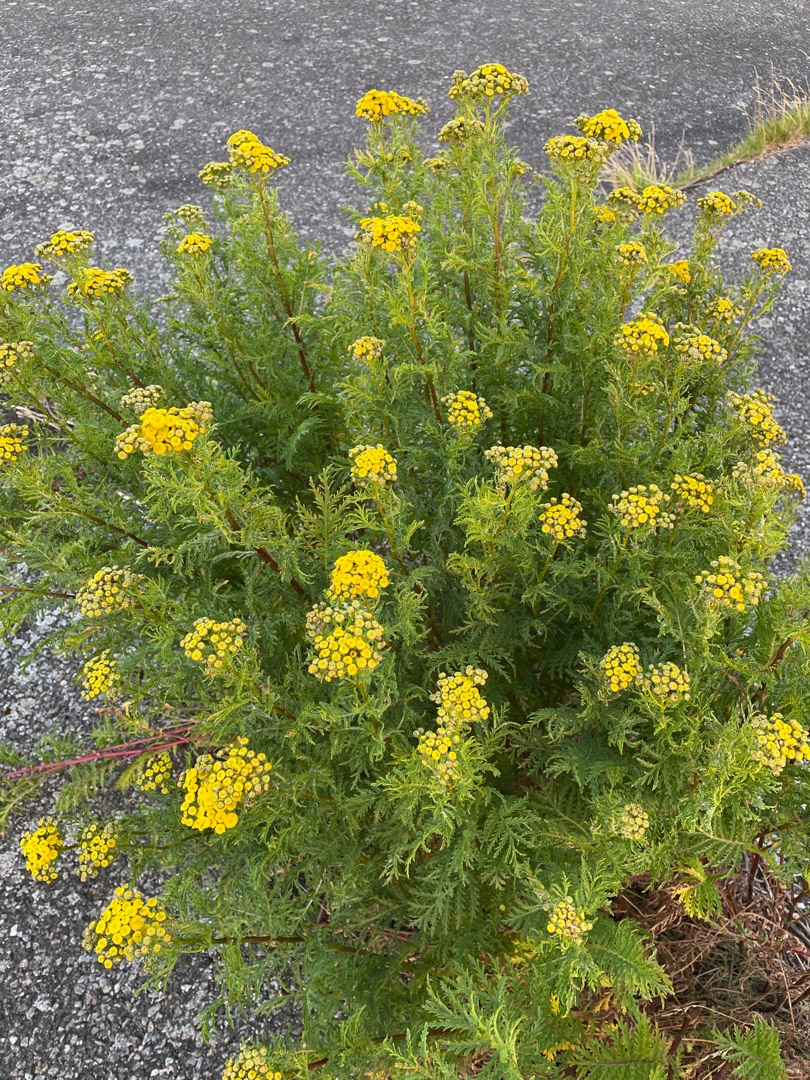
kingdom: Plantae
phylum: Tracheophyta
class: Magnoliopsida
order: Asterales
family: Asteraceae
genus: Tanacetum
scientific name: Tanacetum vulgare
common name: Rejnfan
